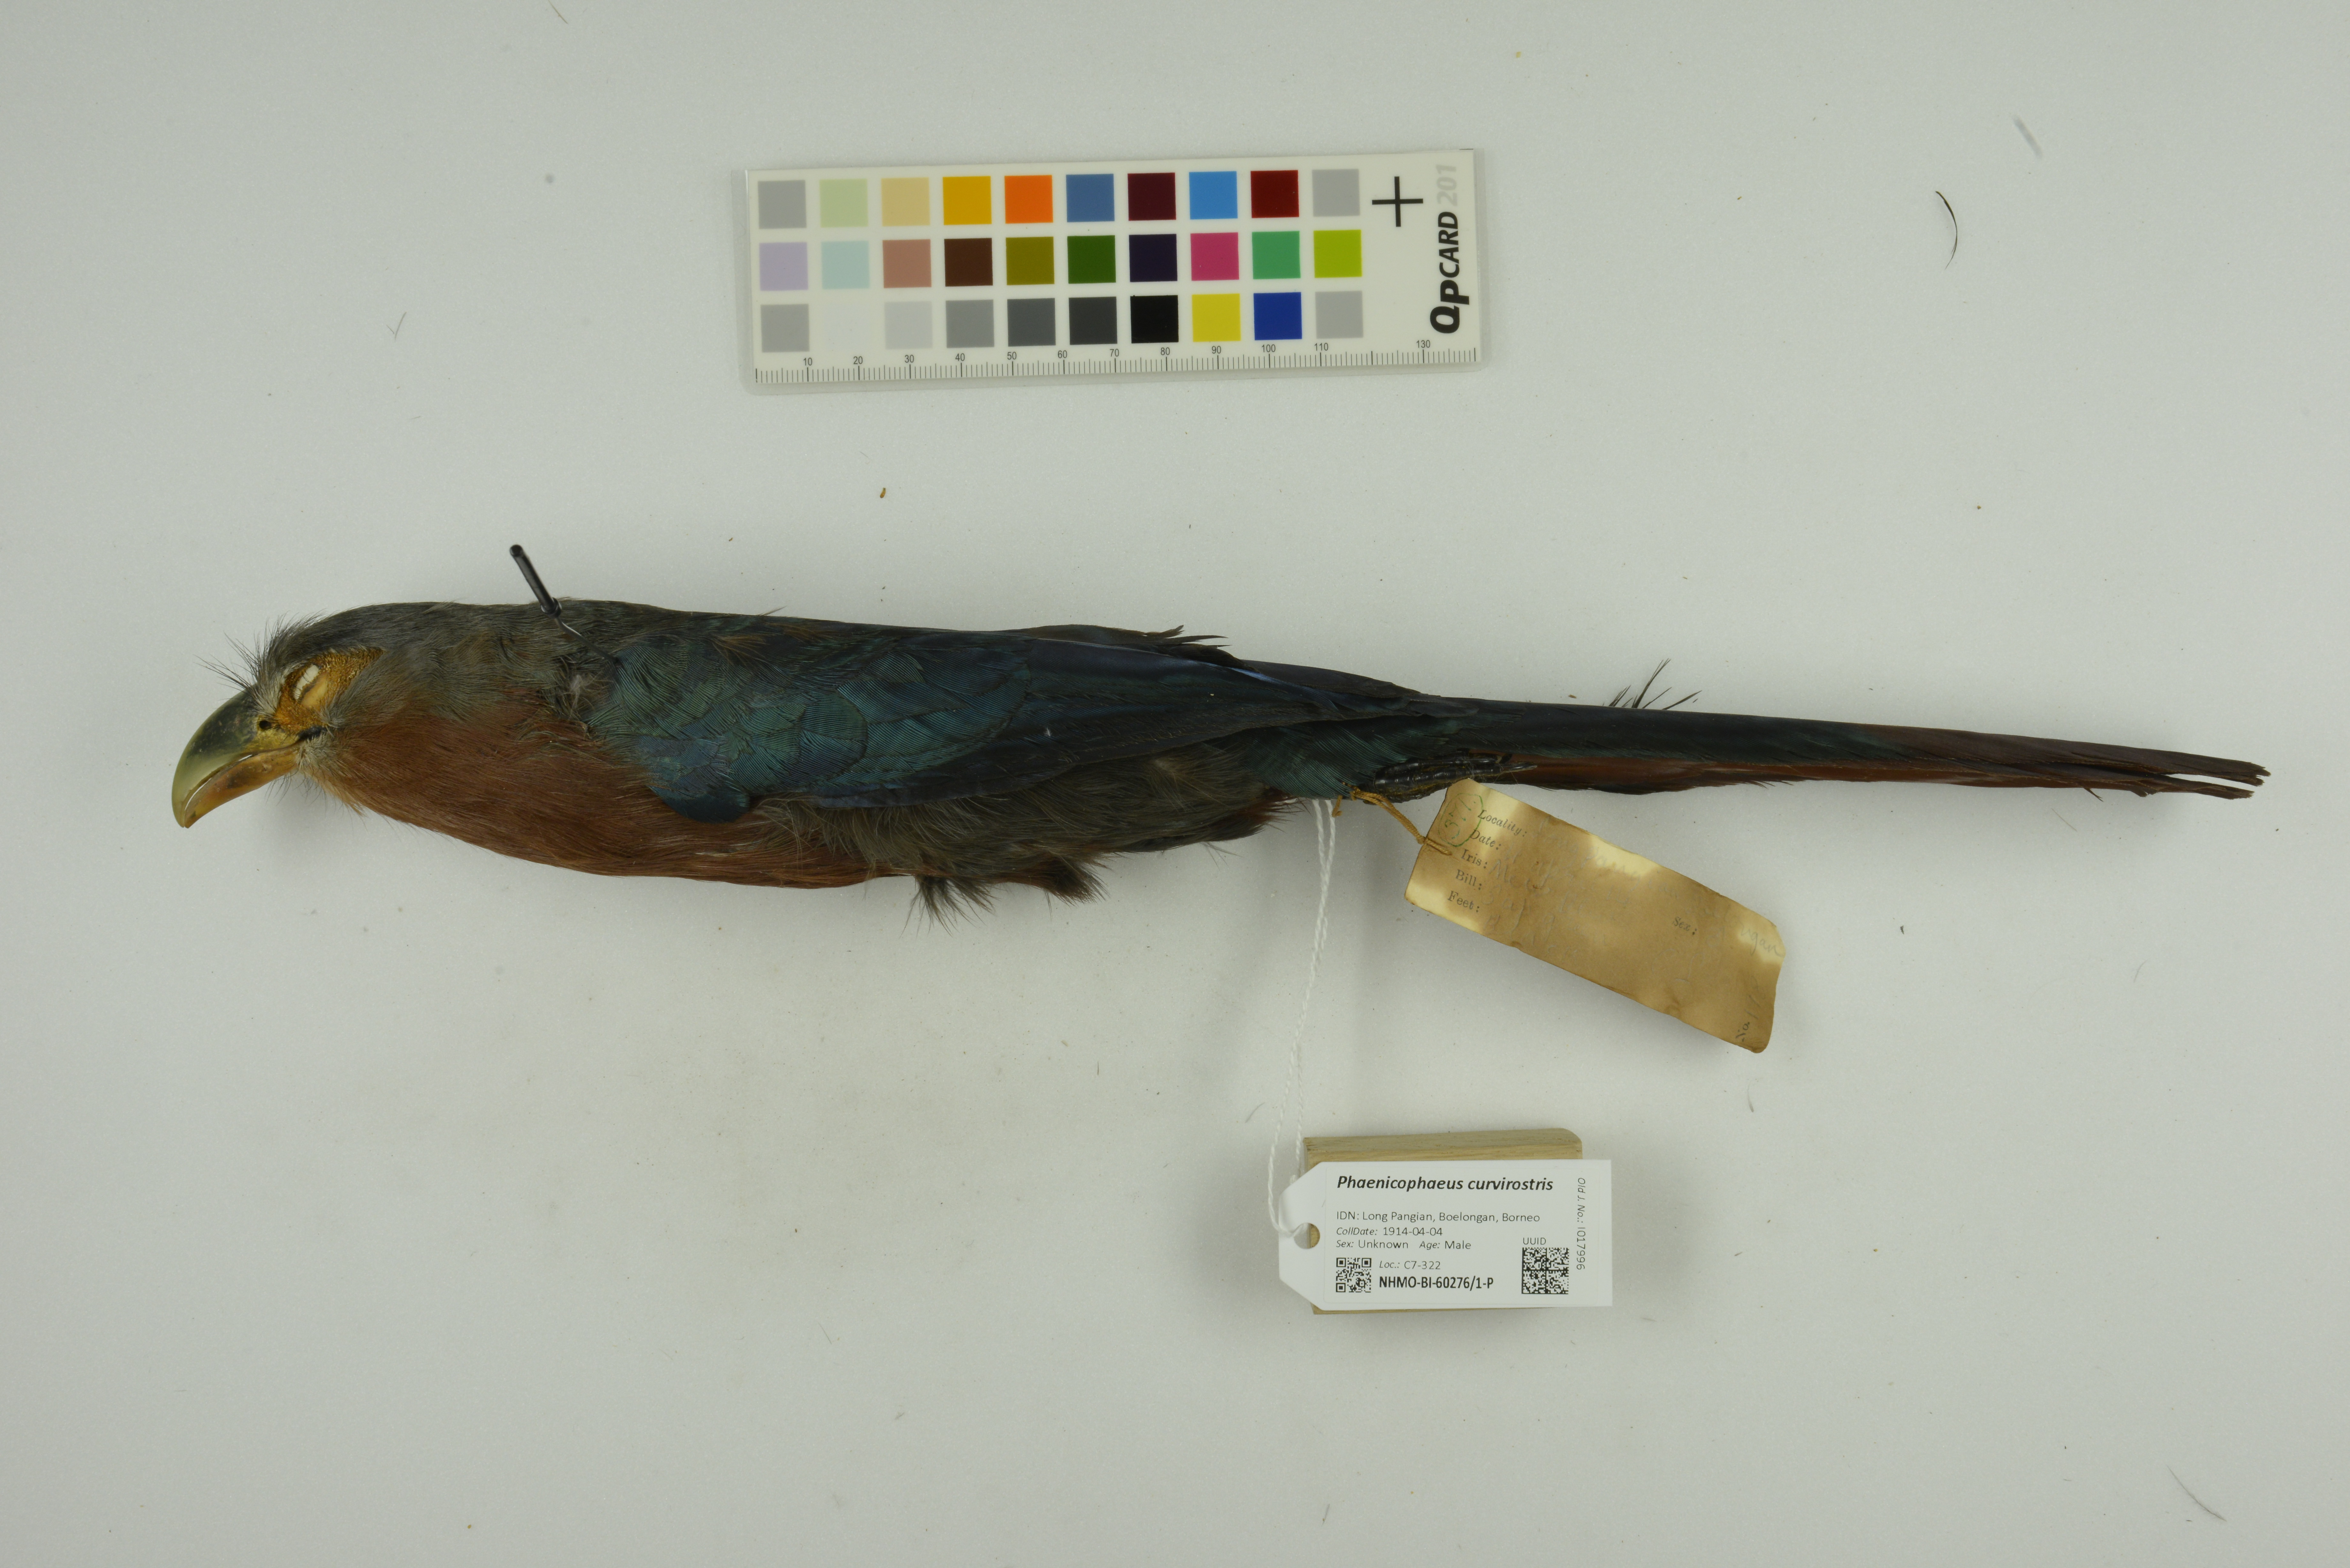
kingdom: Animalia
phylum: Chordata
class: Aves
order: Cuculiformes
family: Cuculidae
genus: Zanclostomus
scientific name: Zanclostomus curvirostris
